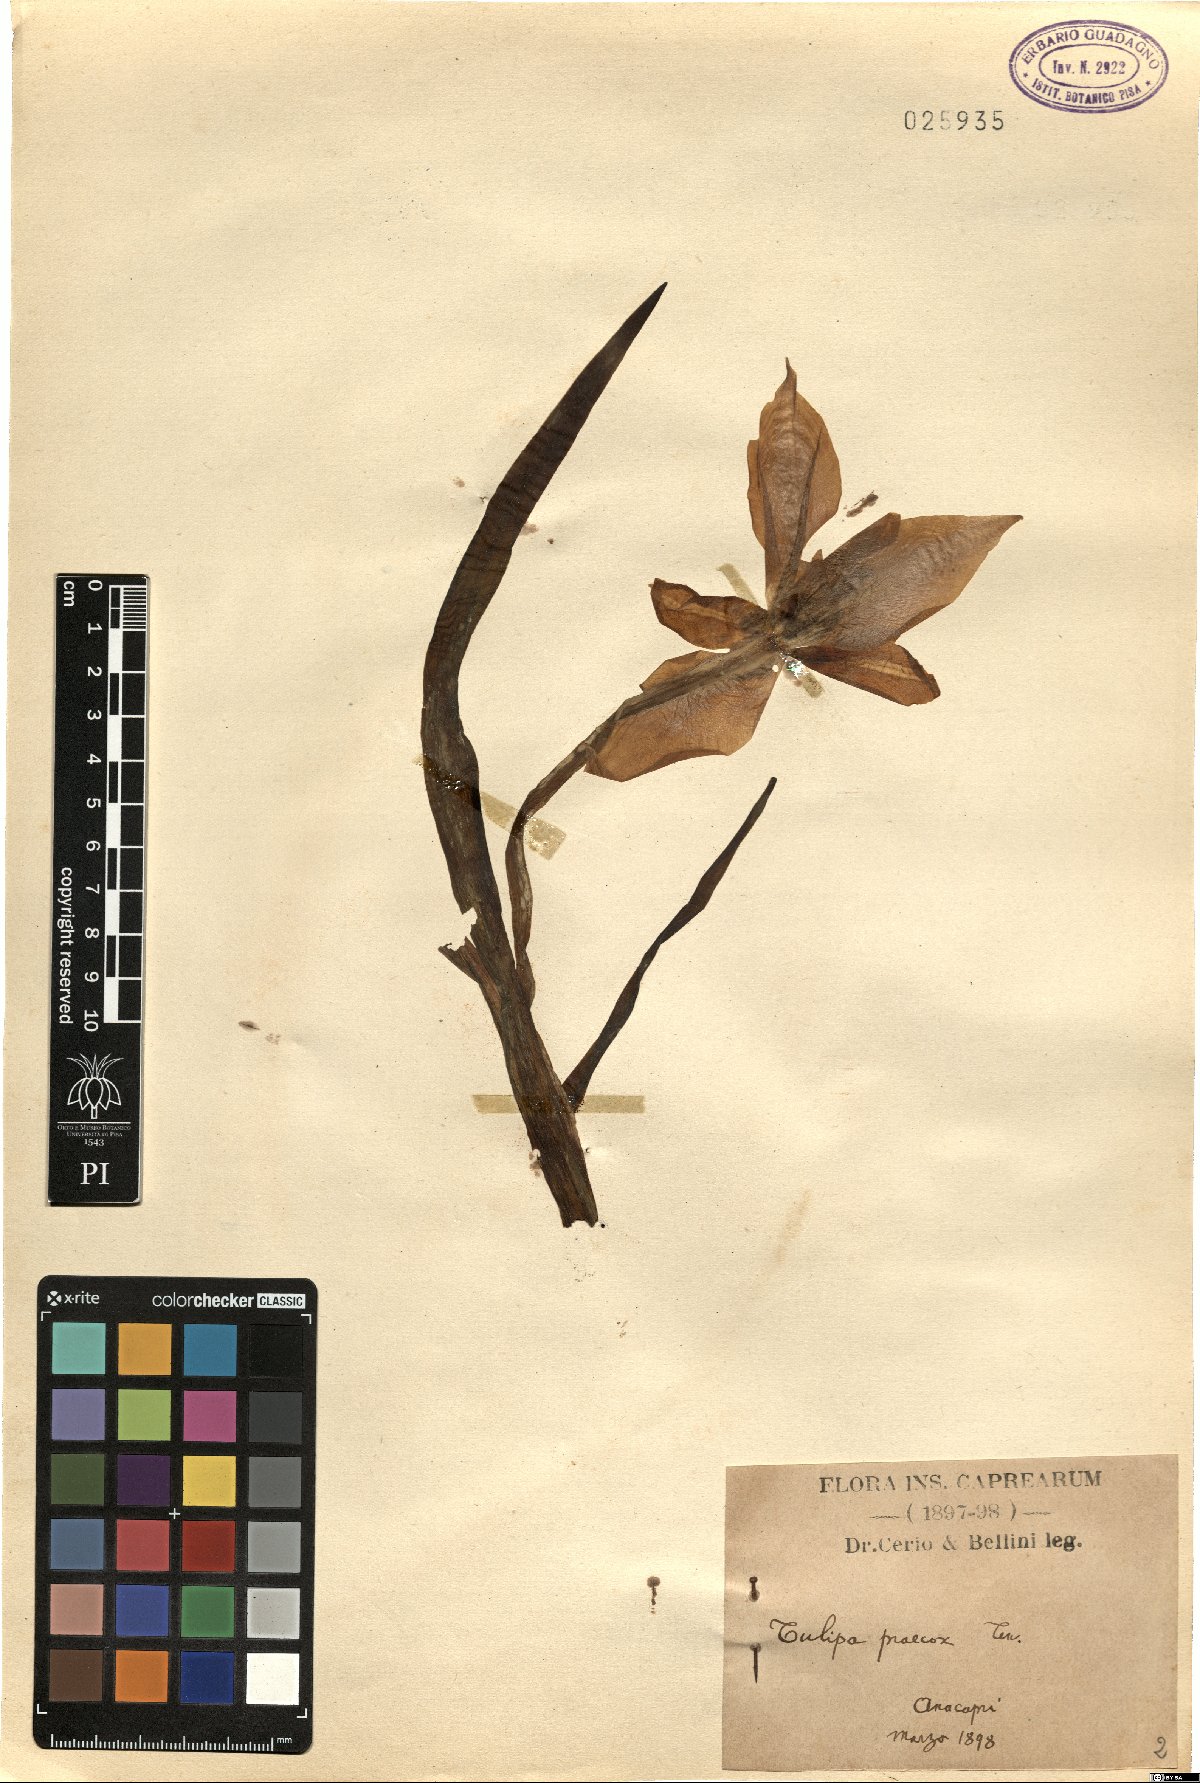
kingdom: Plantae
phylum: Tracheophyta
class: Liliopsida
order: Liliales
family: Liliaceae
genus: Tulipa
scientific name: Tulipa agenensis
